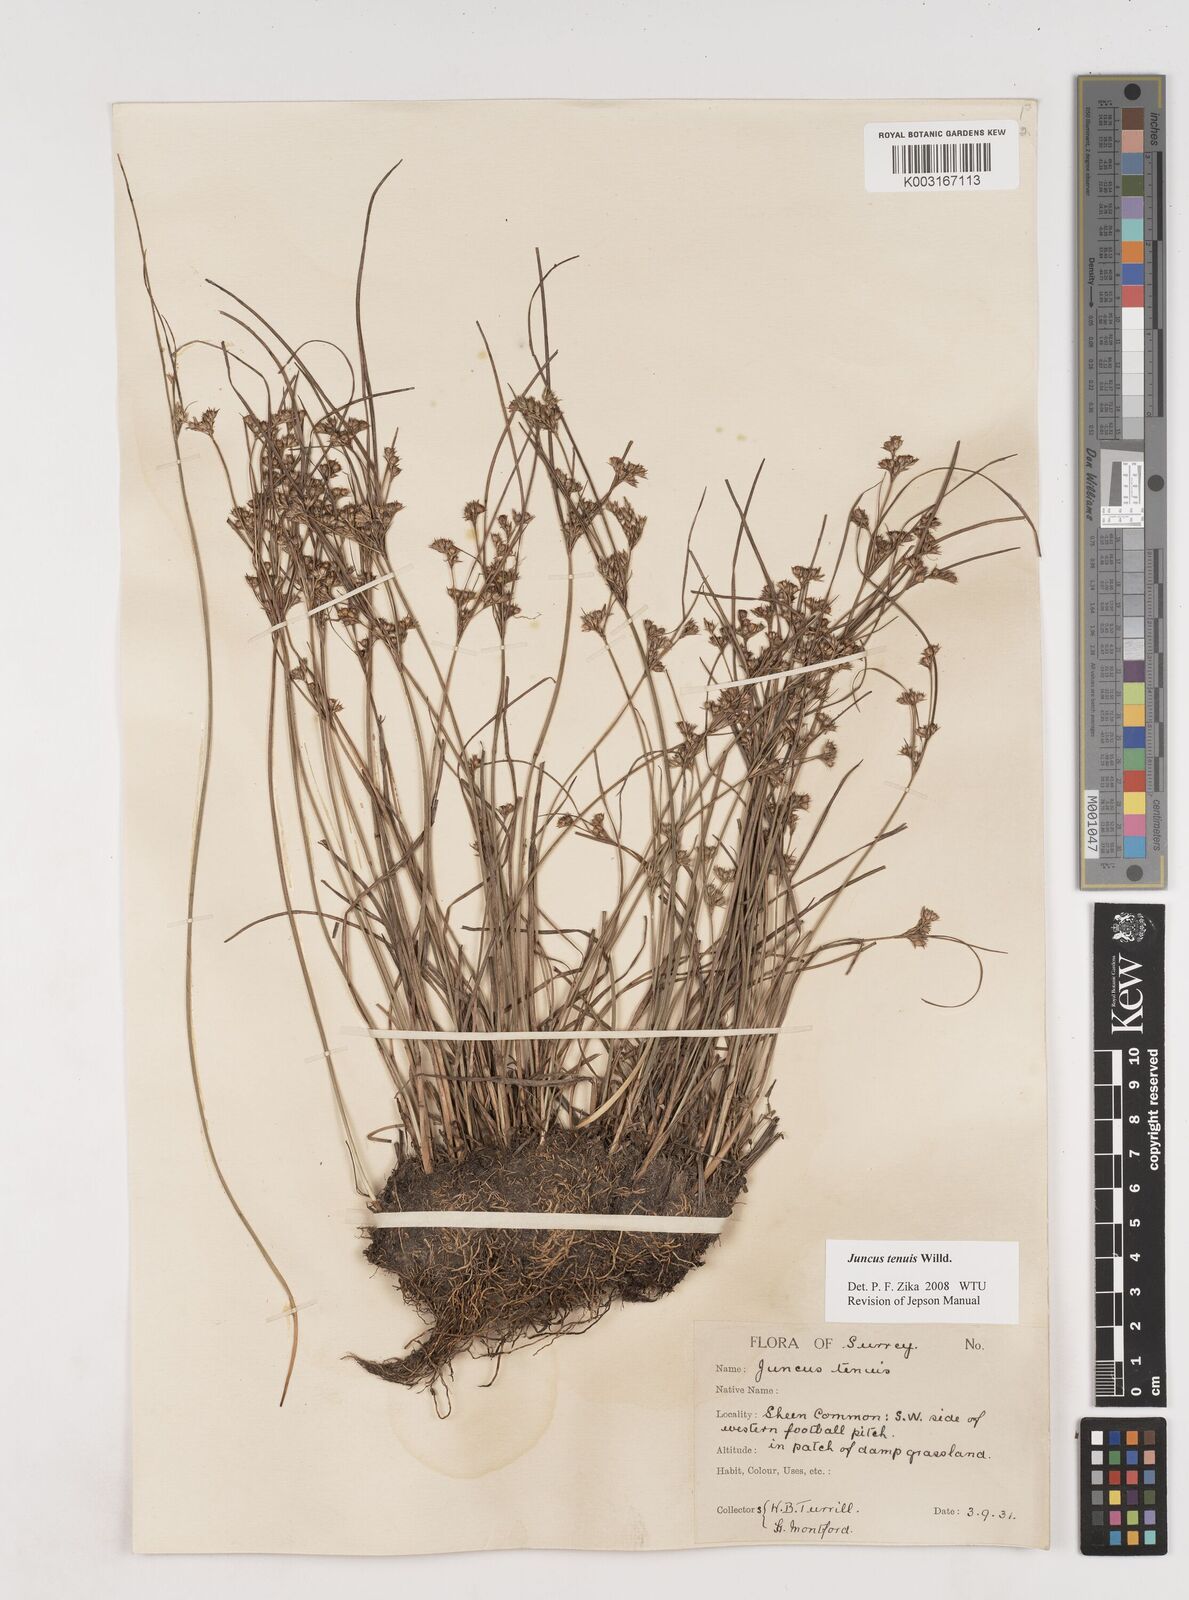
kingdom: Plantae
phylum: Tracheophyta
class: Liliopsida
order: Poales
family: Juncaceae
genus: Juncus
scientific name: Juncus occidentalis
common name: Western rush
